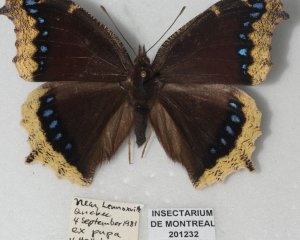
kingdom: Animalia
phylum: Arthropoda
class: Insecta
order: Lepidoptera
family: Nymphalidae
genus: Nymphalis
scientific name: Nymphalis antiopa
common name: Mourning Cloak
